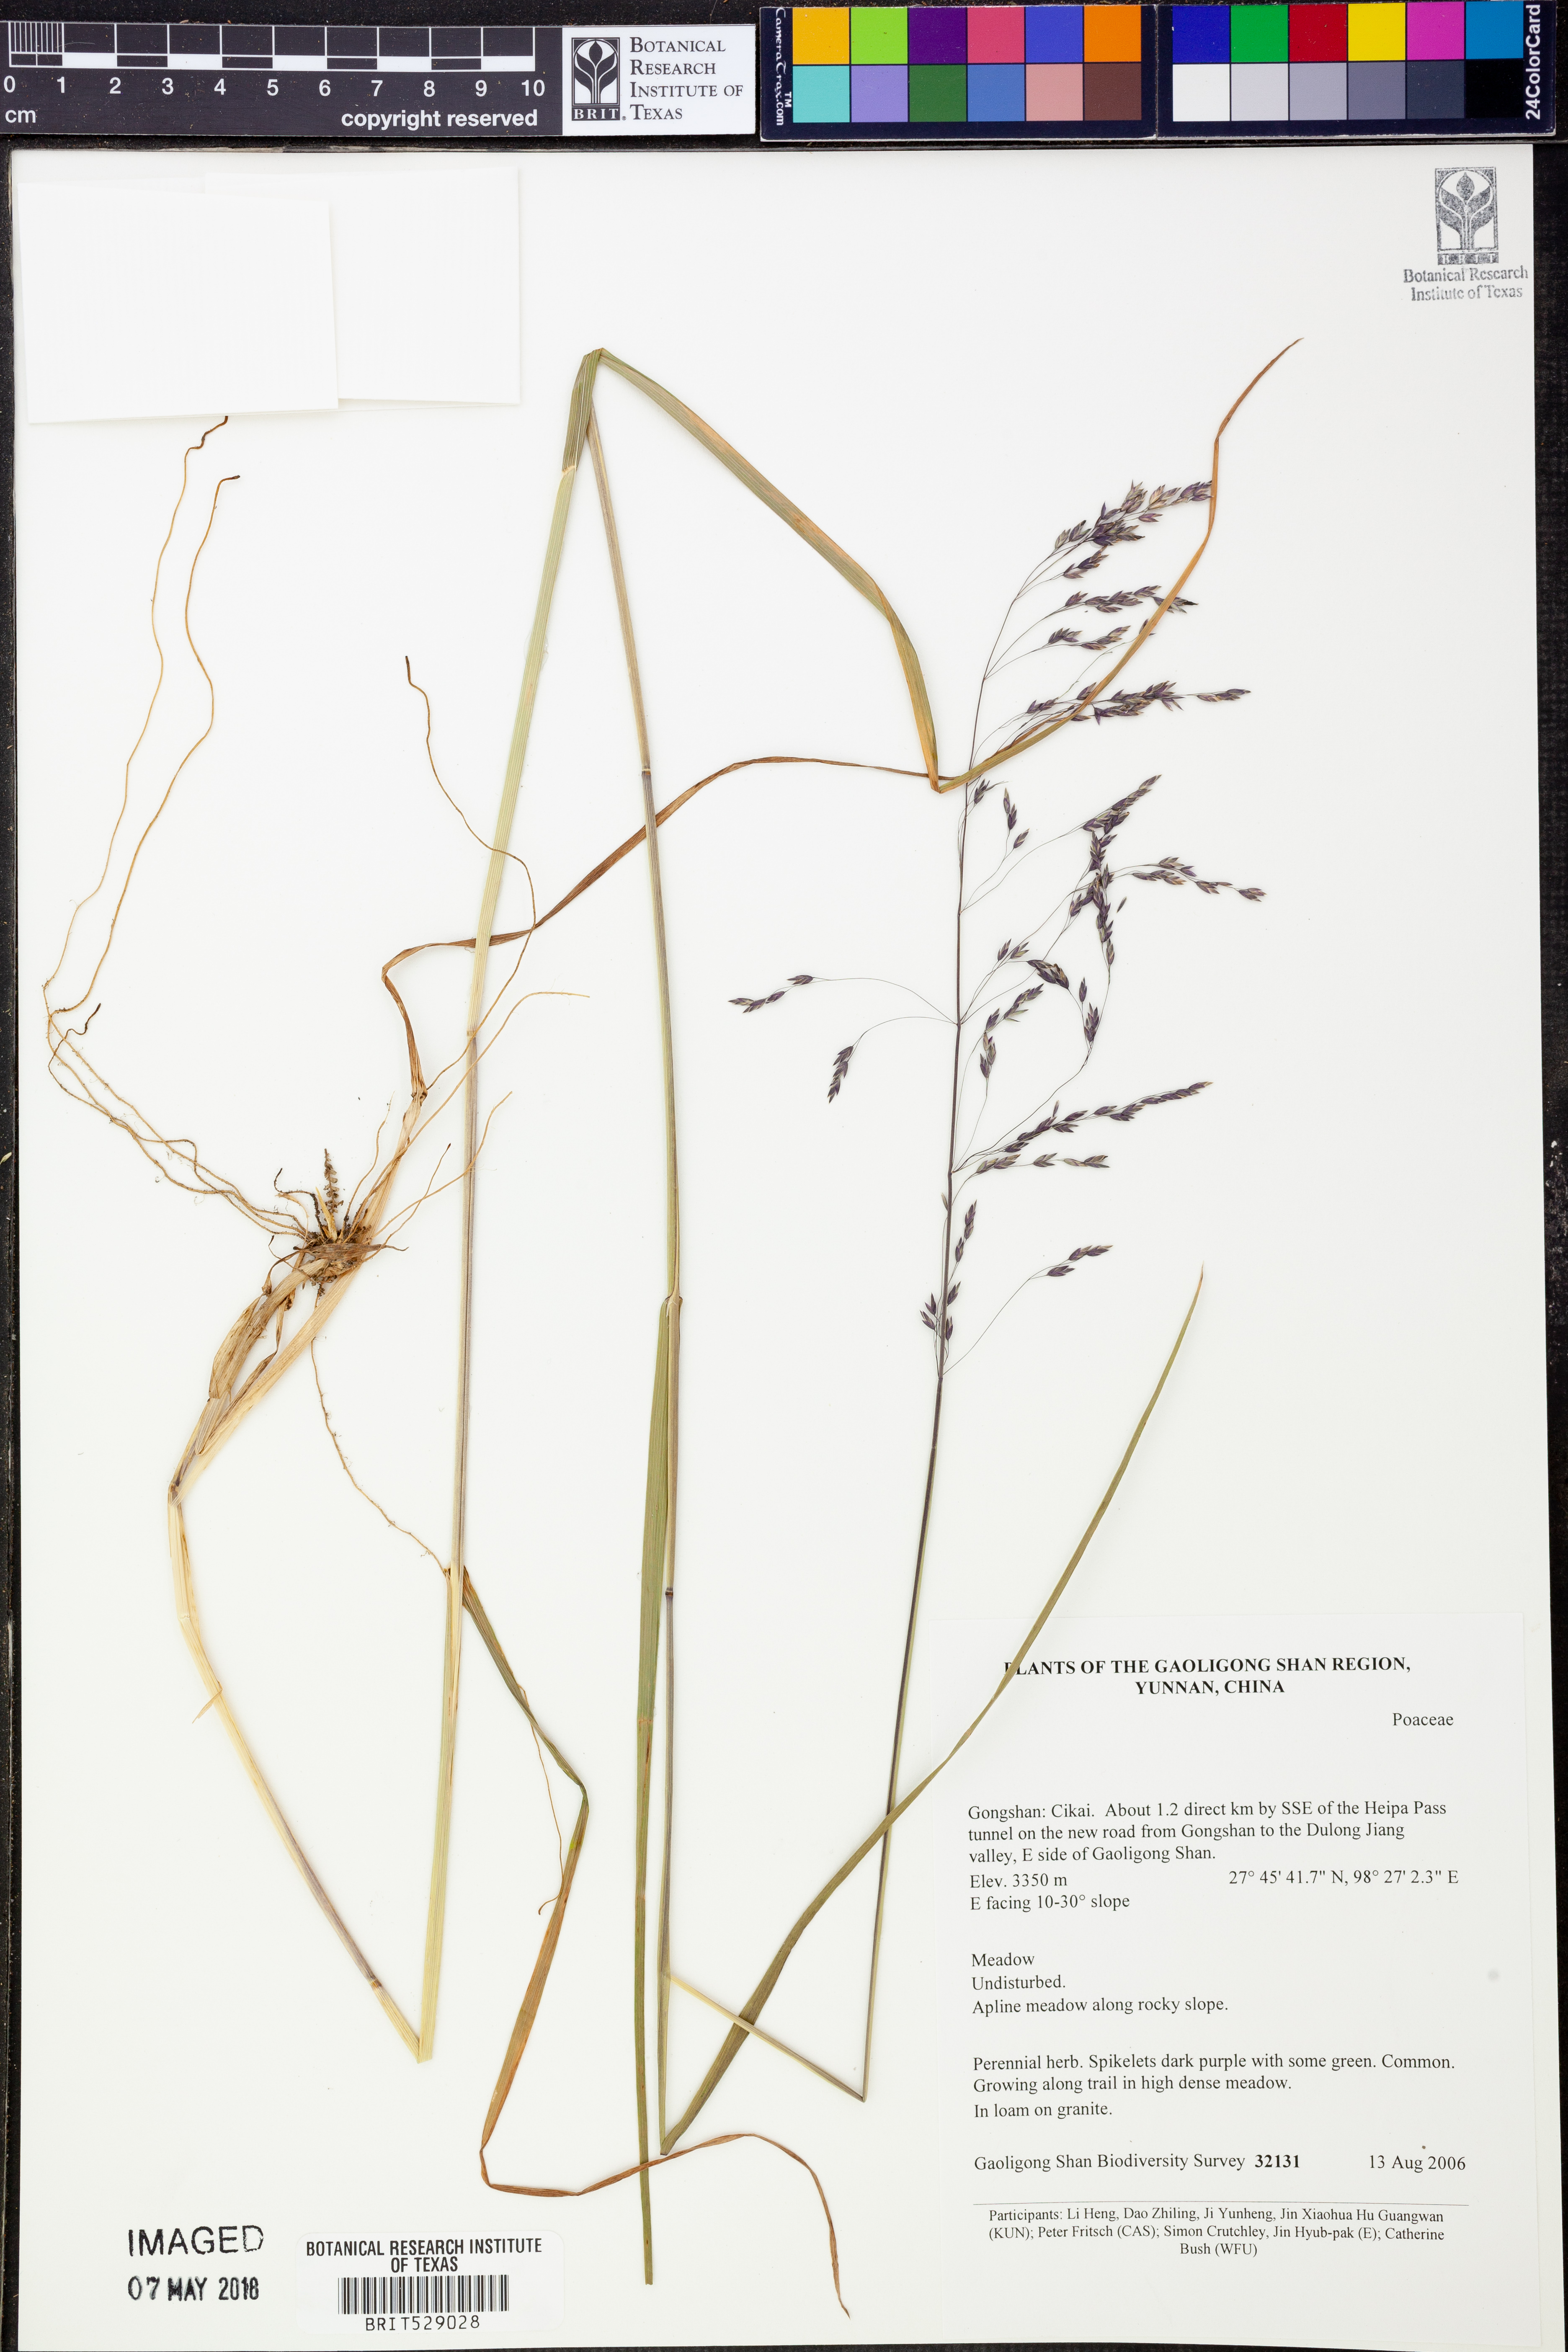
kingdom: Plantae
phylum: Tracheophyta
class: Liliopsida
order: Poales
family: Poaceae
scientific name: Poaceae
